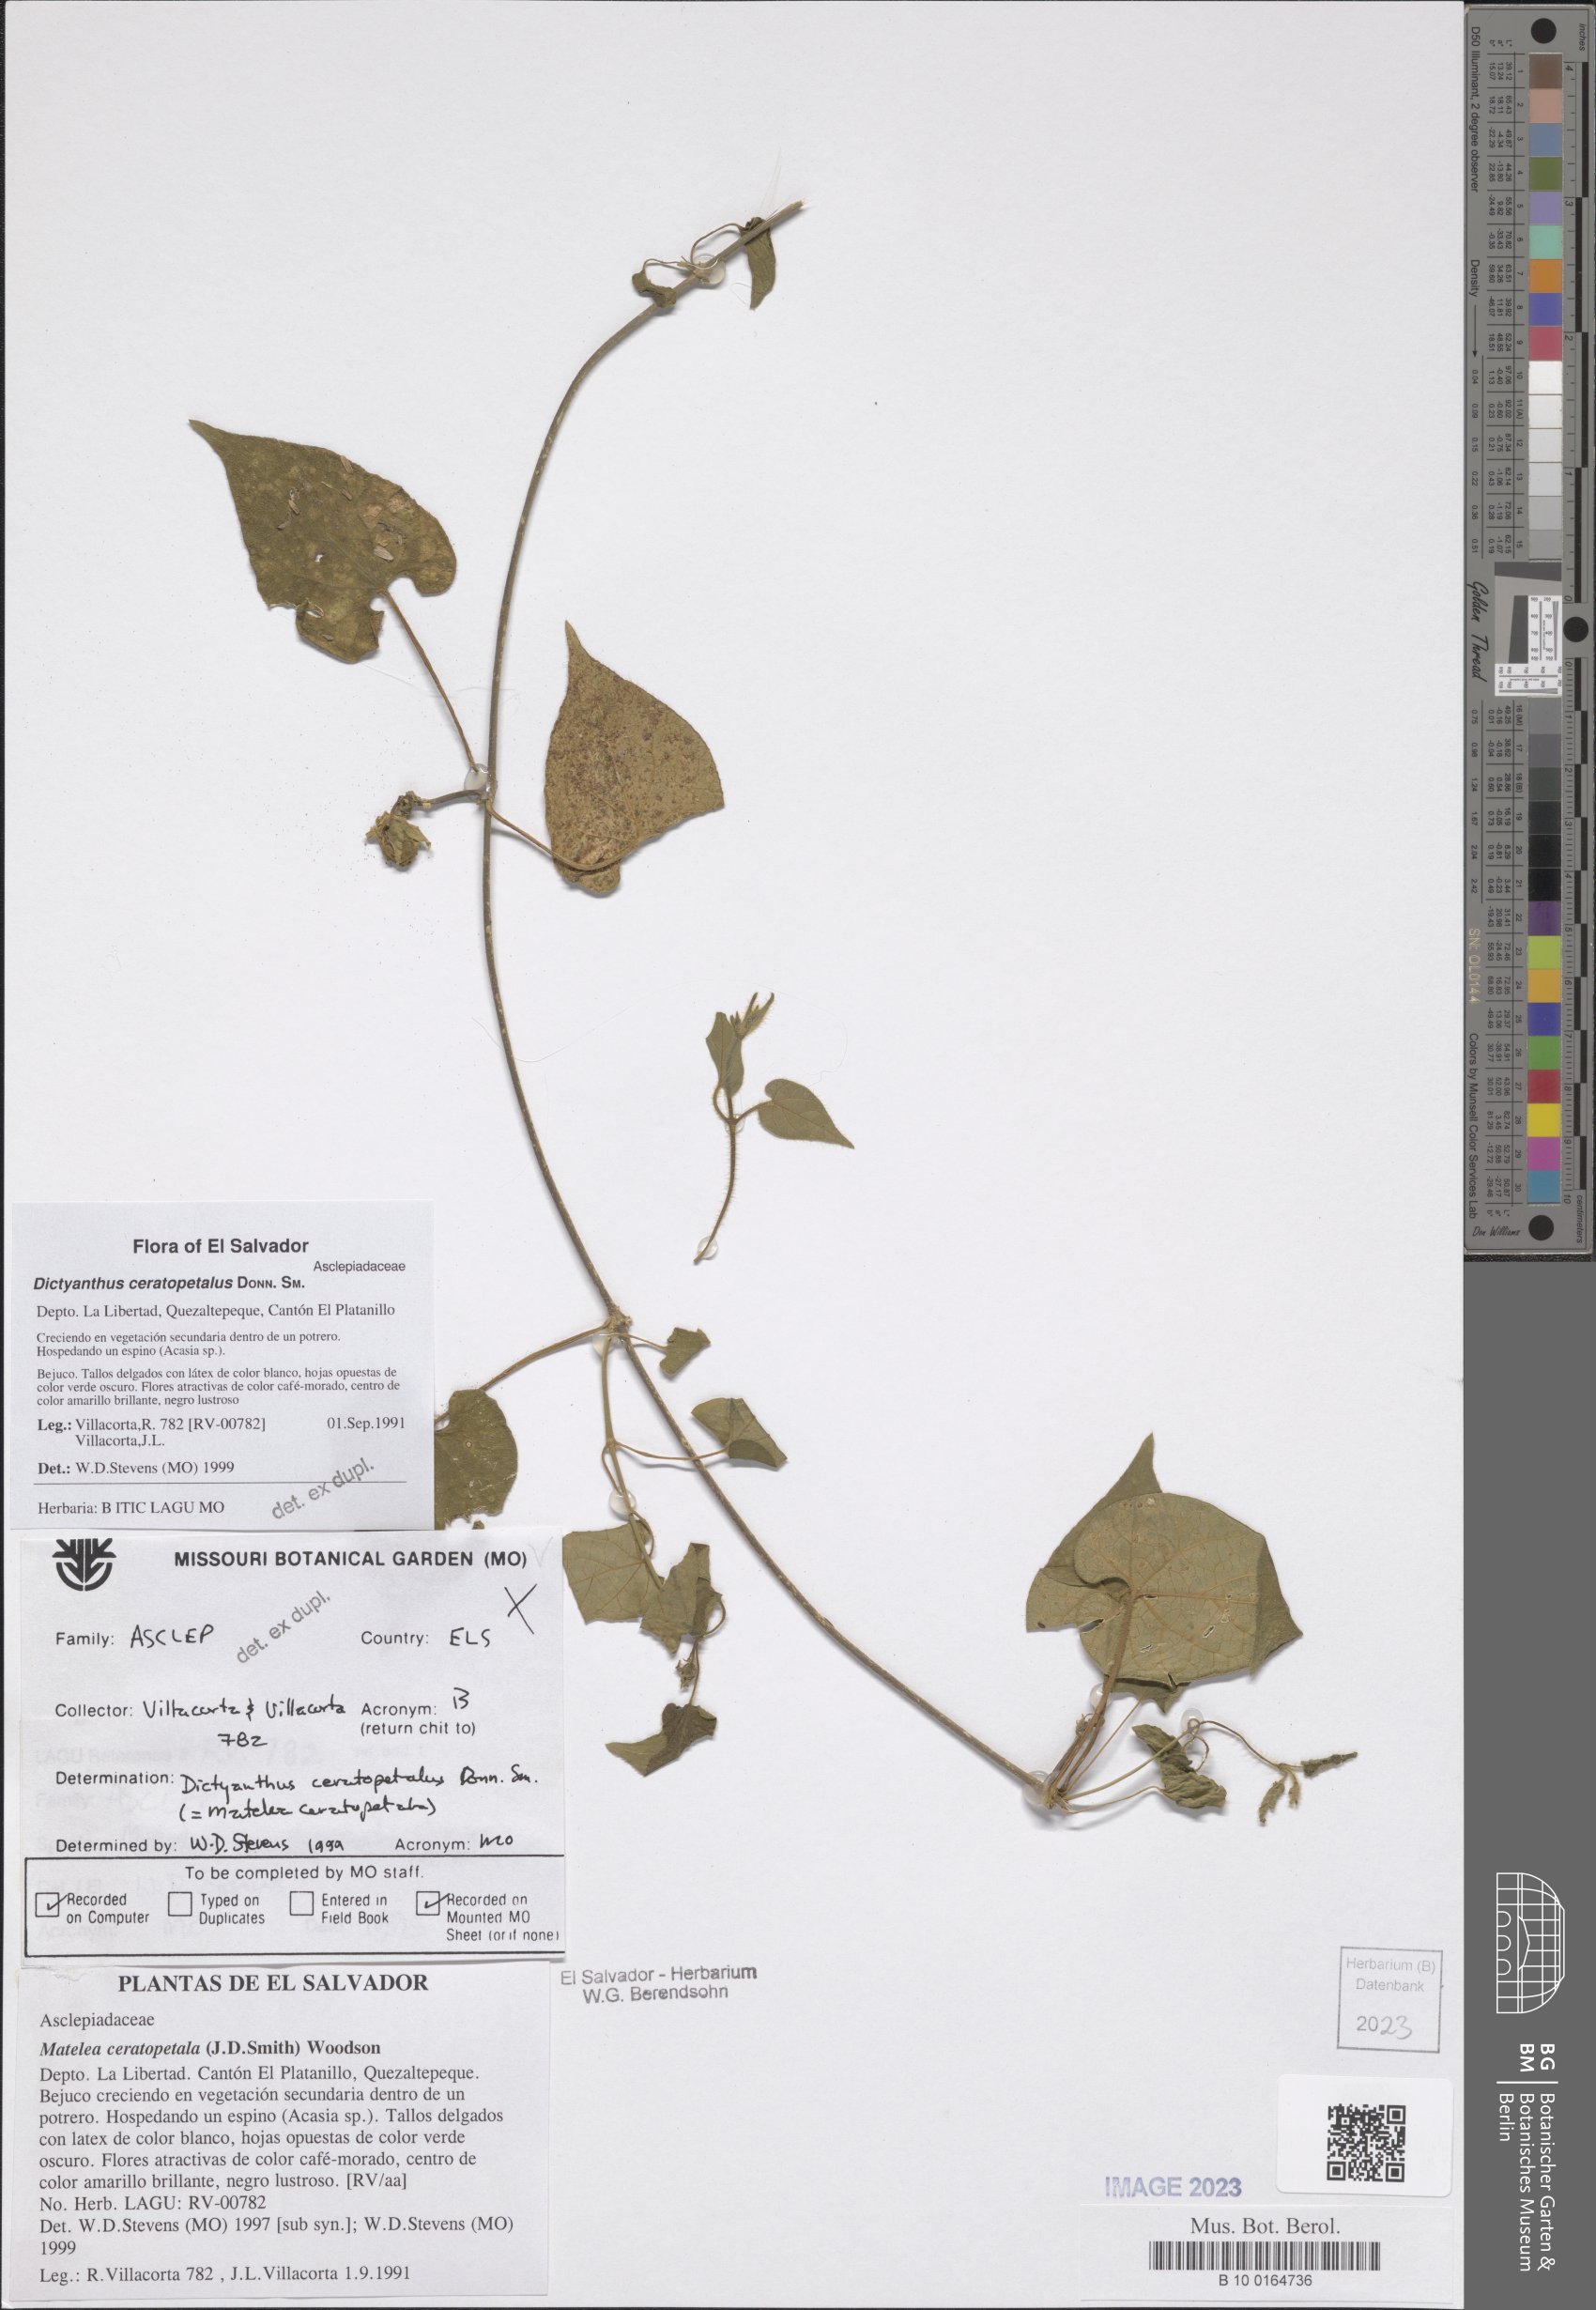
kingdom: Plantae
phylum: Tracheophyta
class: Magnoliopsida
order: Gentianales
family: Apocynaceae
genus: Dictyanthus
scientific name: Dictyanthus ceratopetalus
